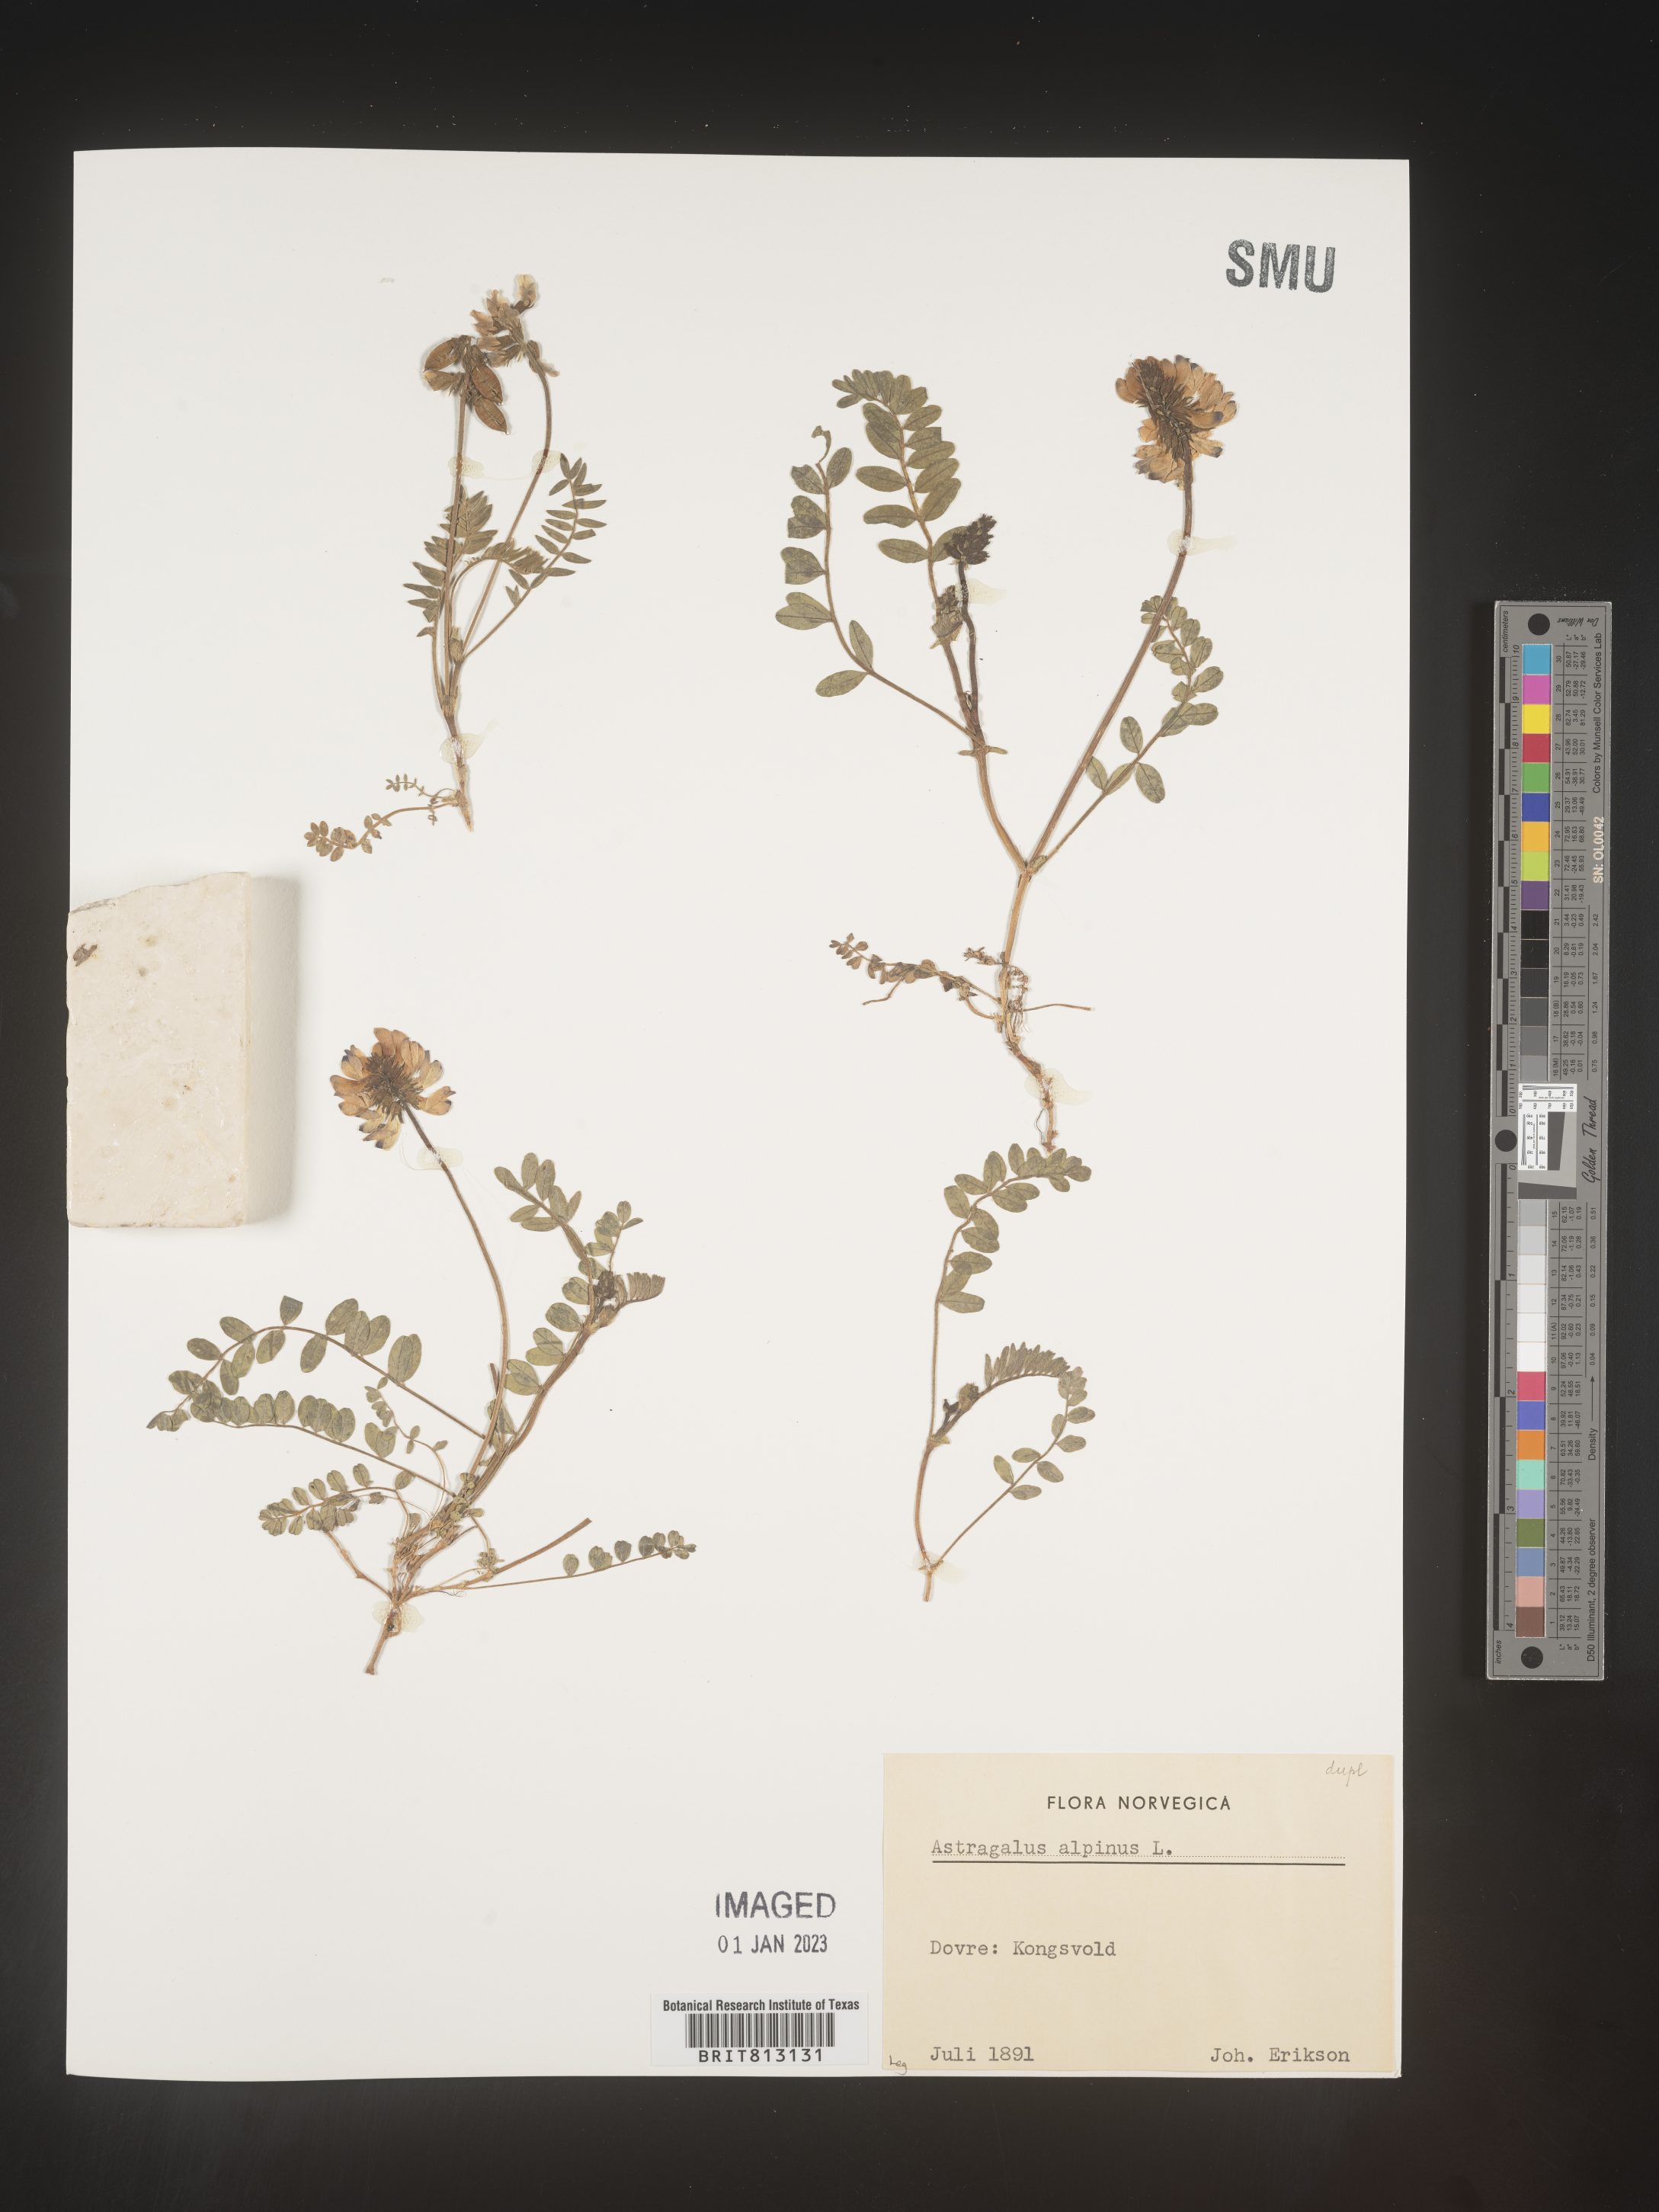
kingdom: Plantae
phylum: Tracheophyta
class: Magnoliopsida
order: Fabales
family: Fabaceae
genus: Astragalus
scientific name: Astragalus
